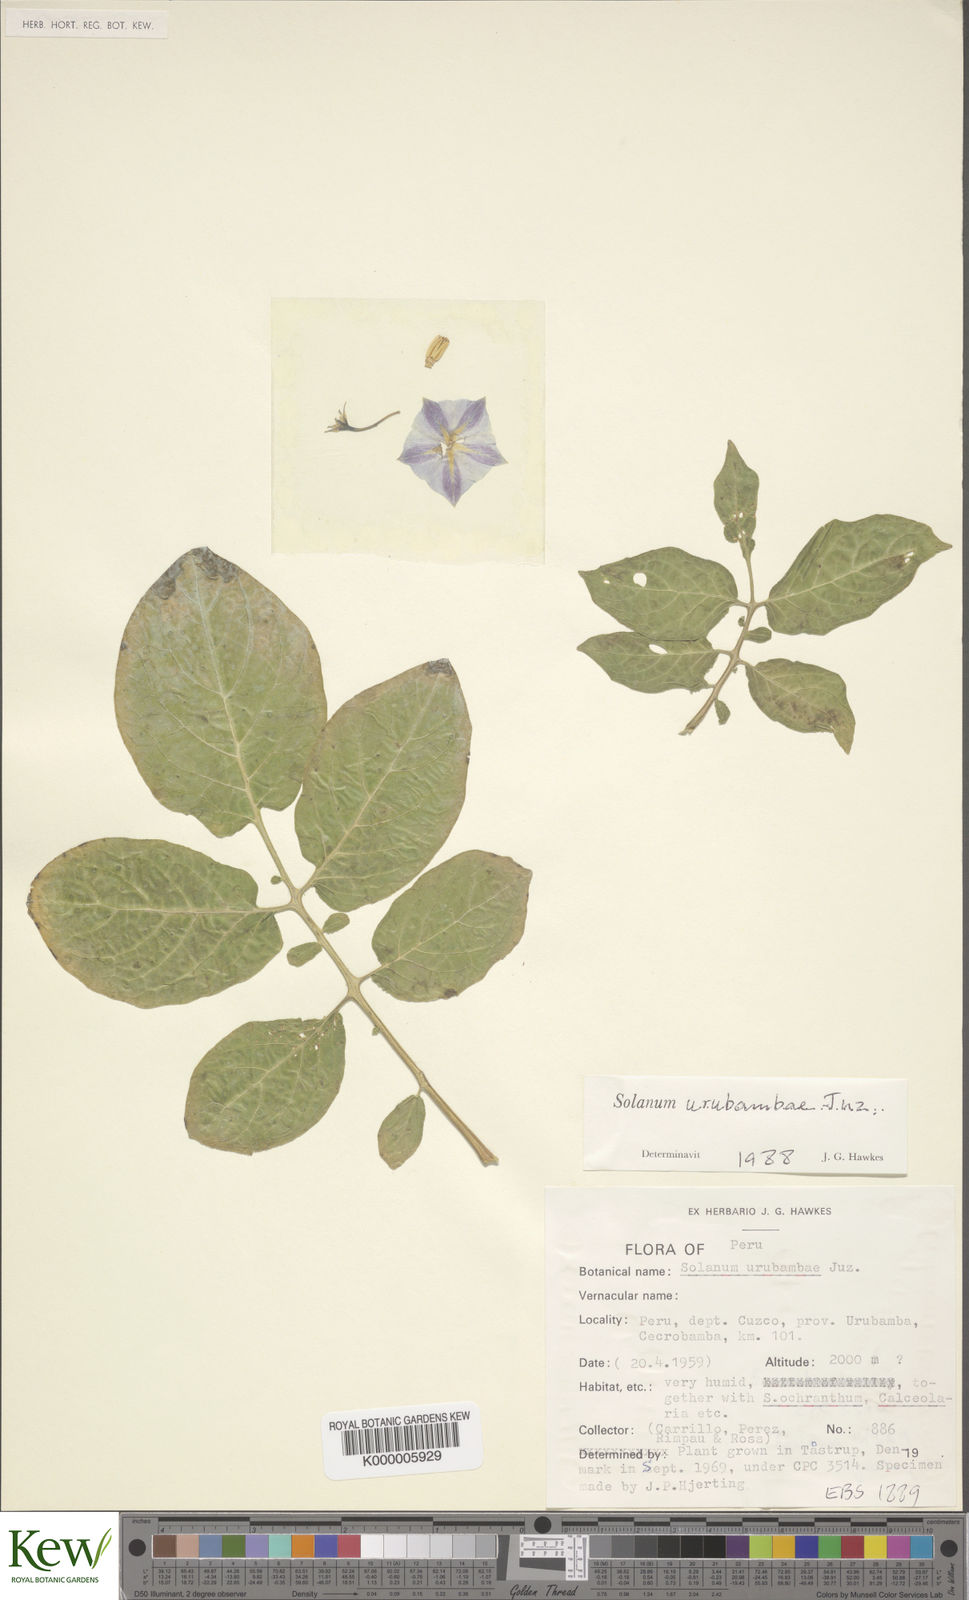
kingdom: Plantae
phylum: Tracheophyta
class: Magnoliopsida
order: Solanales
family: Solanaceae
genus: Solanum
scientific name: Solanum violaceimarmoratum
